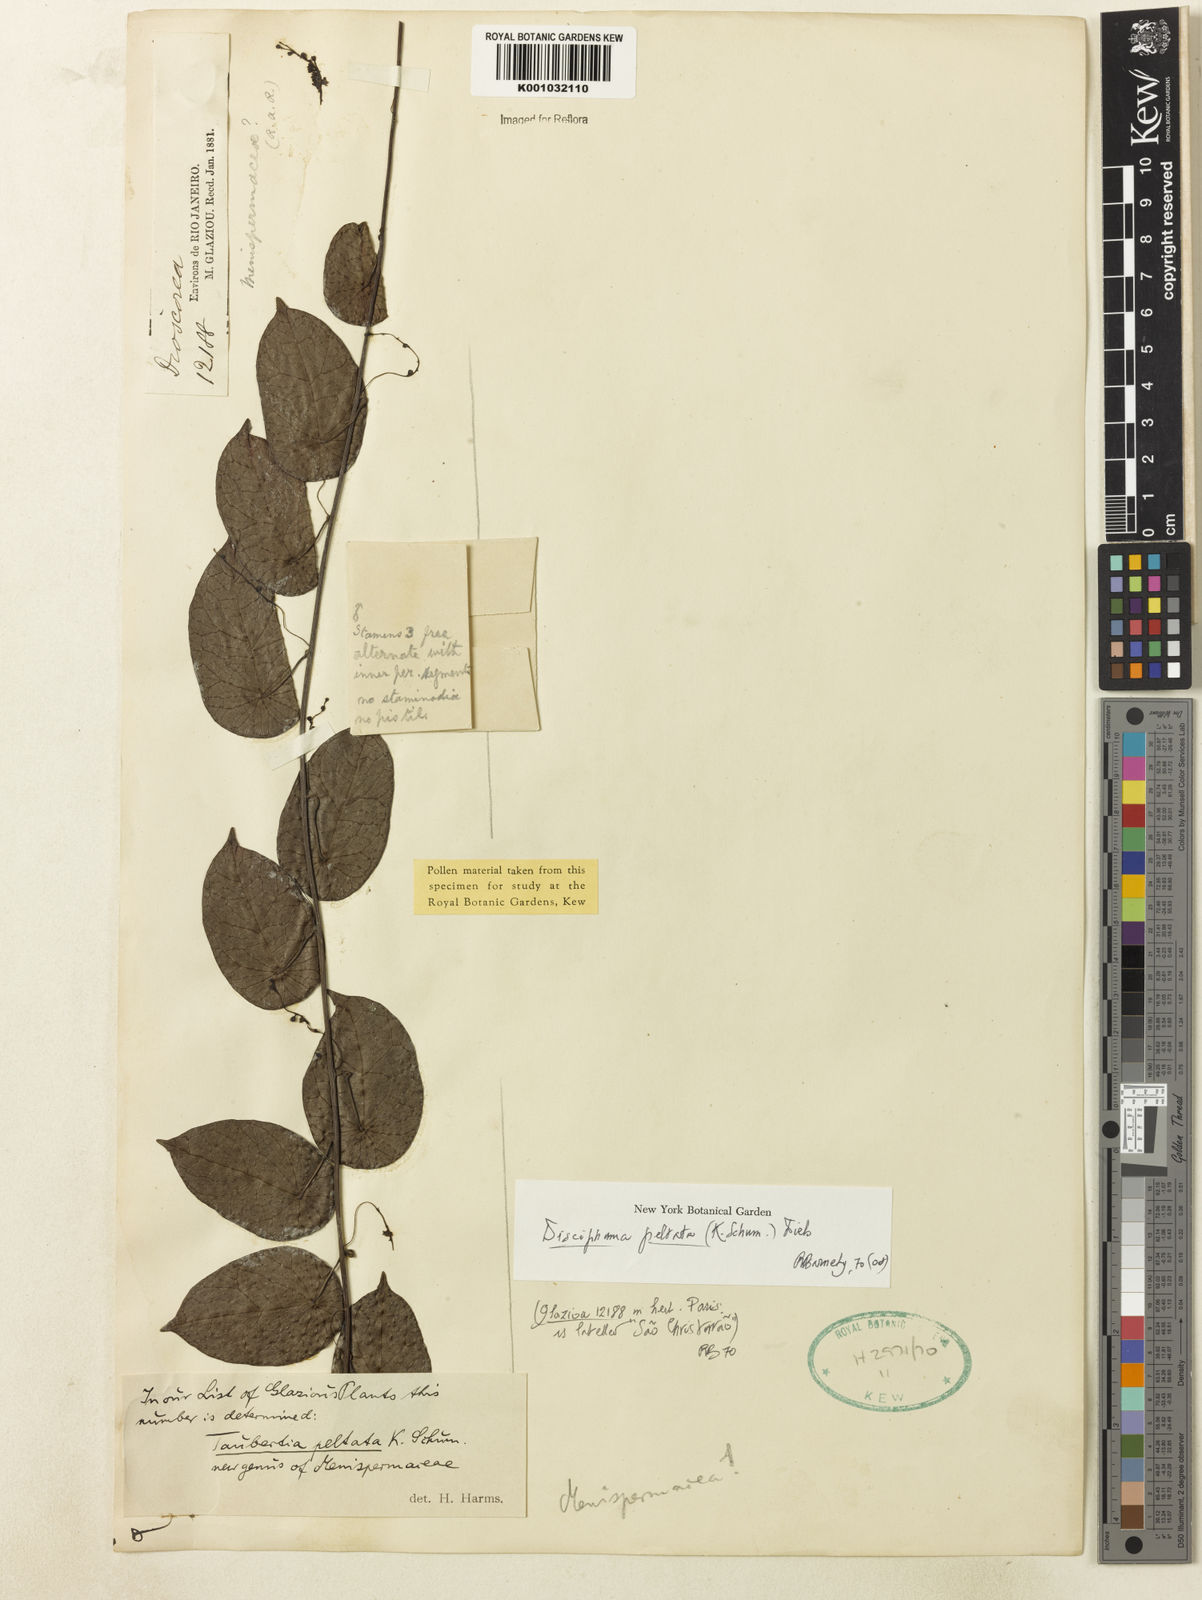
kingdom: Plantae
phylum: Tracheophyta
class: Magnoliopsida
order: Ranunculales
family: Menispermaceae
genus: Disciphania
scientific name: Disciphania hernandia
